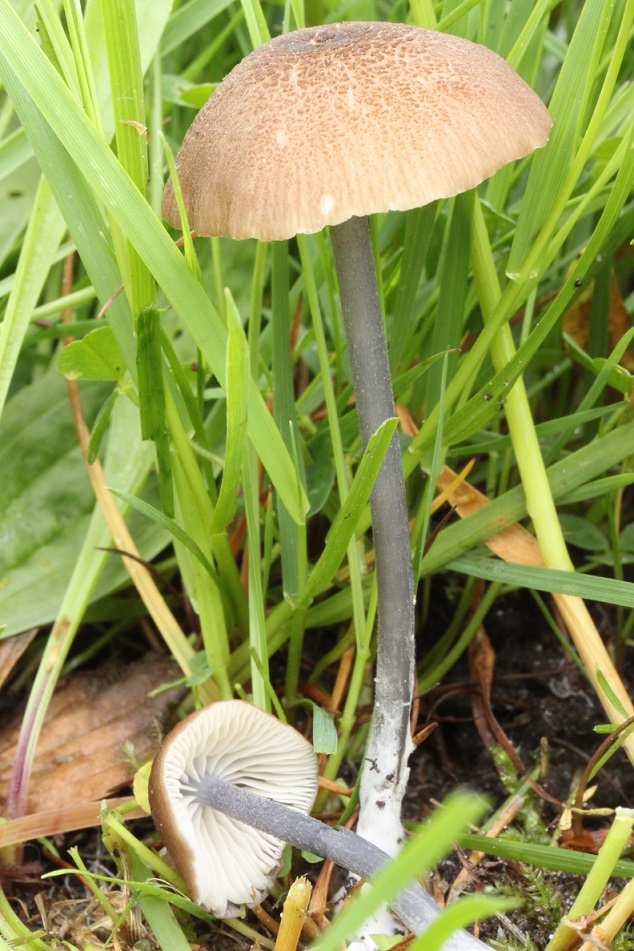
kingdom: Fungi
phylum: Basidiomycota
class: Agaricomycetes
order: Agaricales
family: Entolomataceae
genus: Entoloma
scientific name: Entoloma asprellum
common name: ru rødblad
